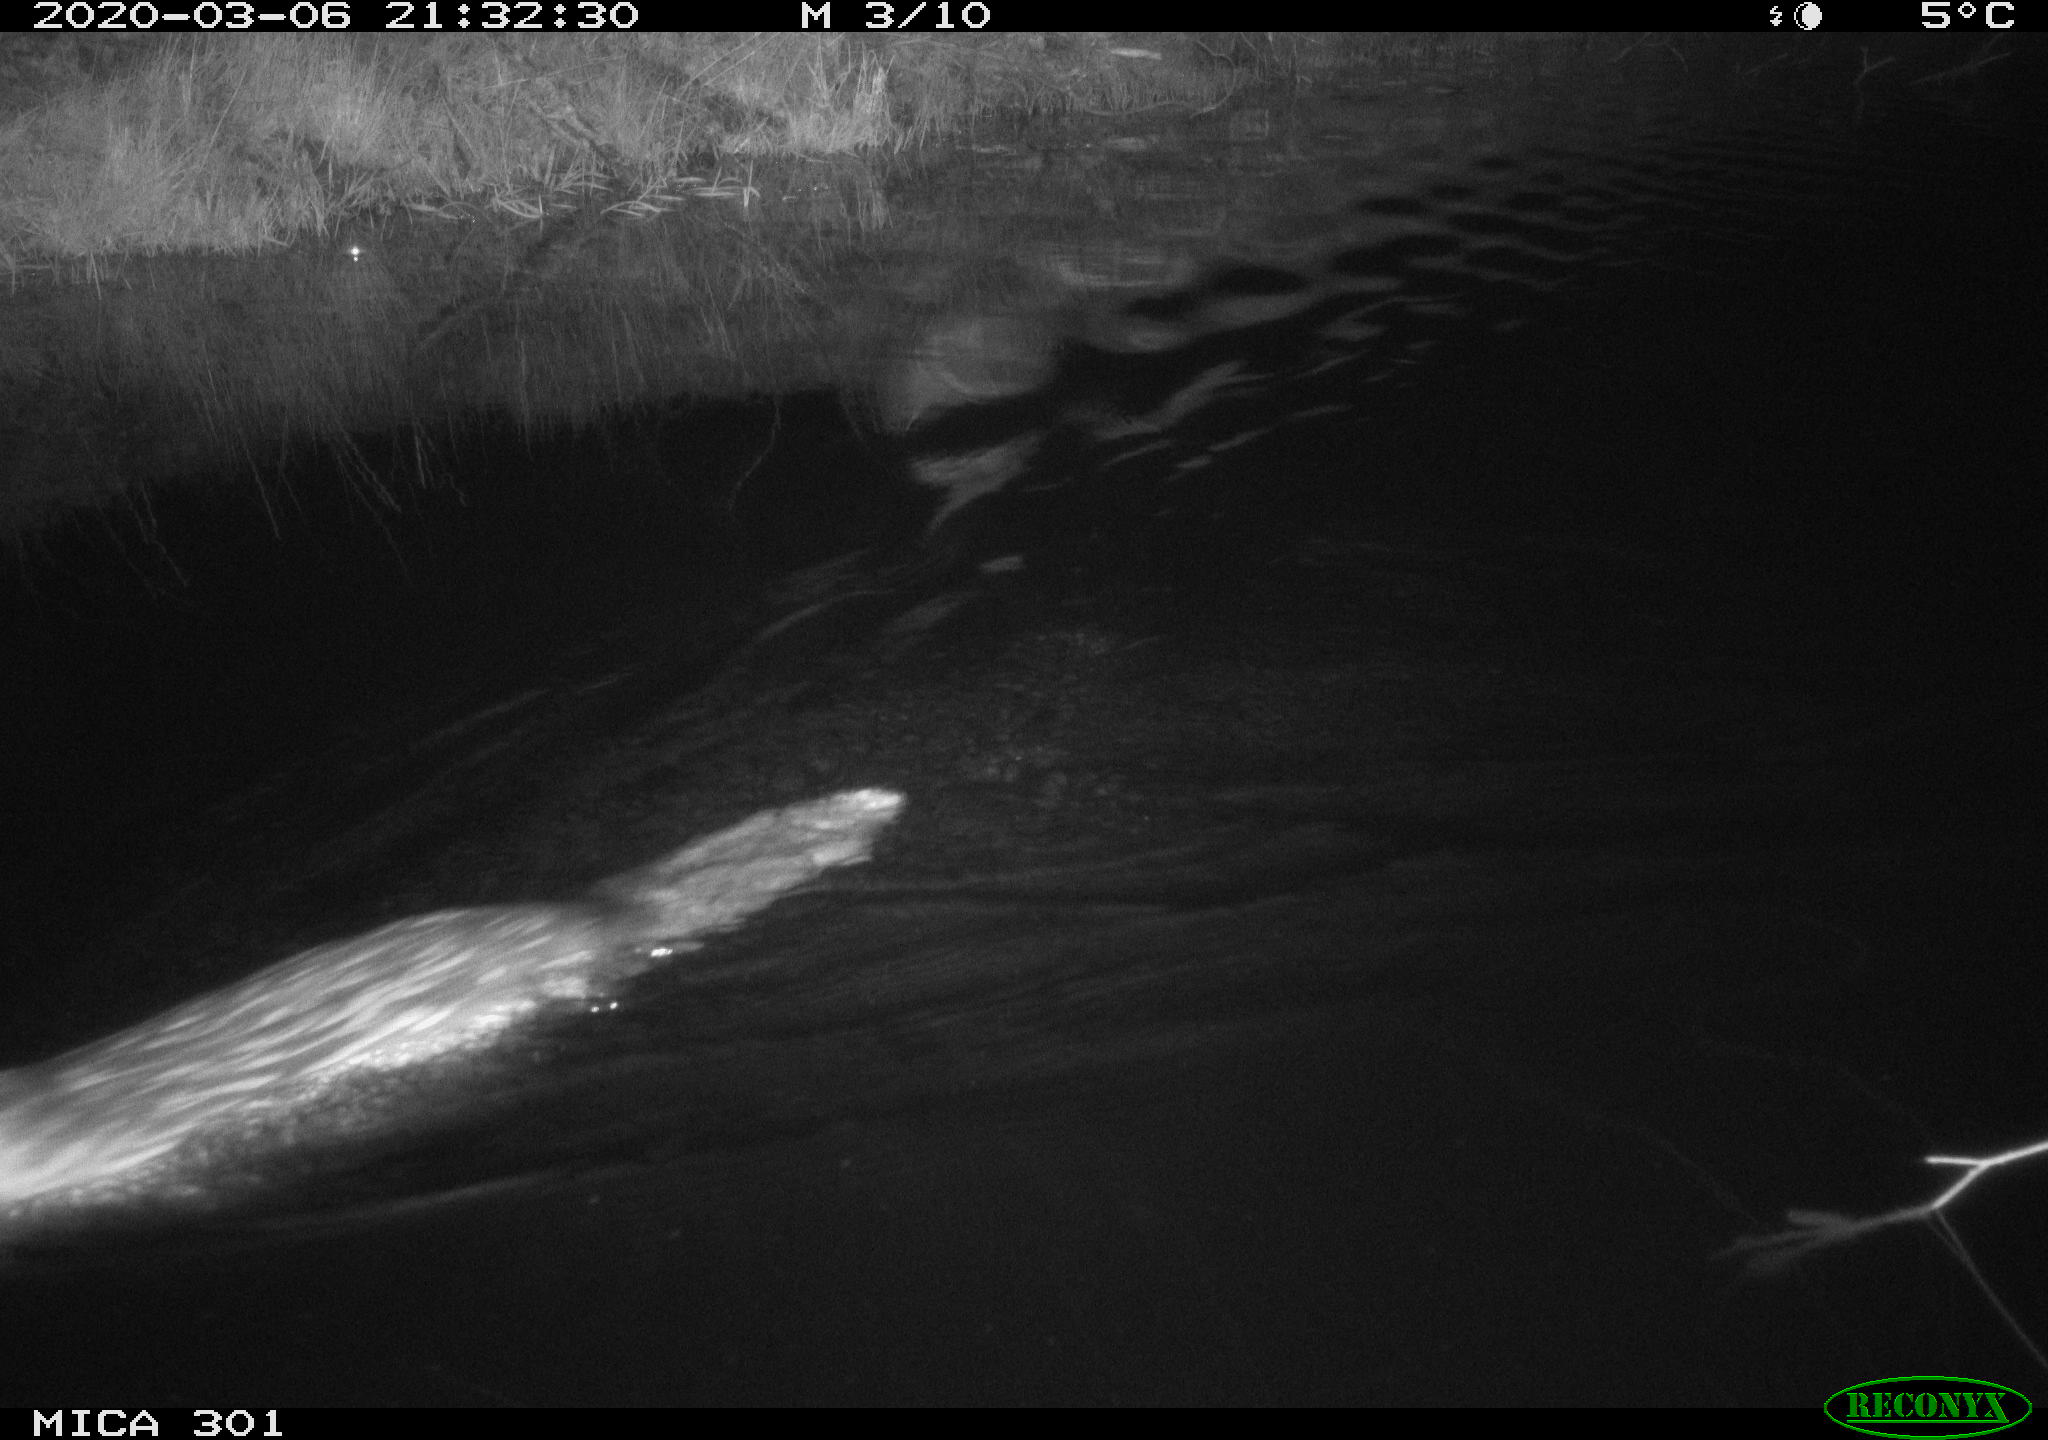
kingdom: Animalia
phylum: Chordata
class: Mammalia
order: Rodentia
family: Castoridae
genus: Castor
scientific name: Castor fiber
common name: Eurasian beaver
